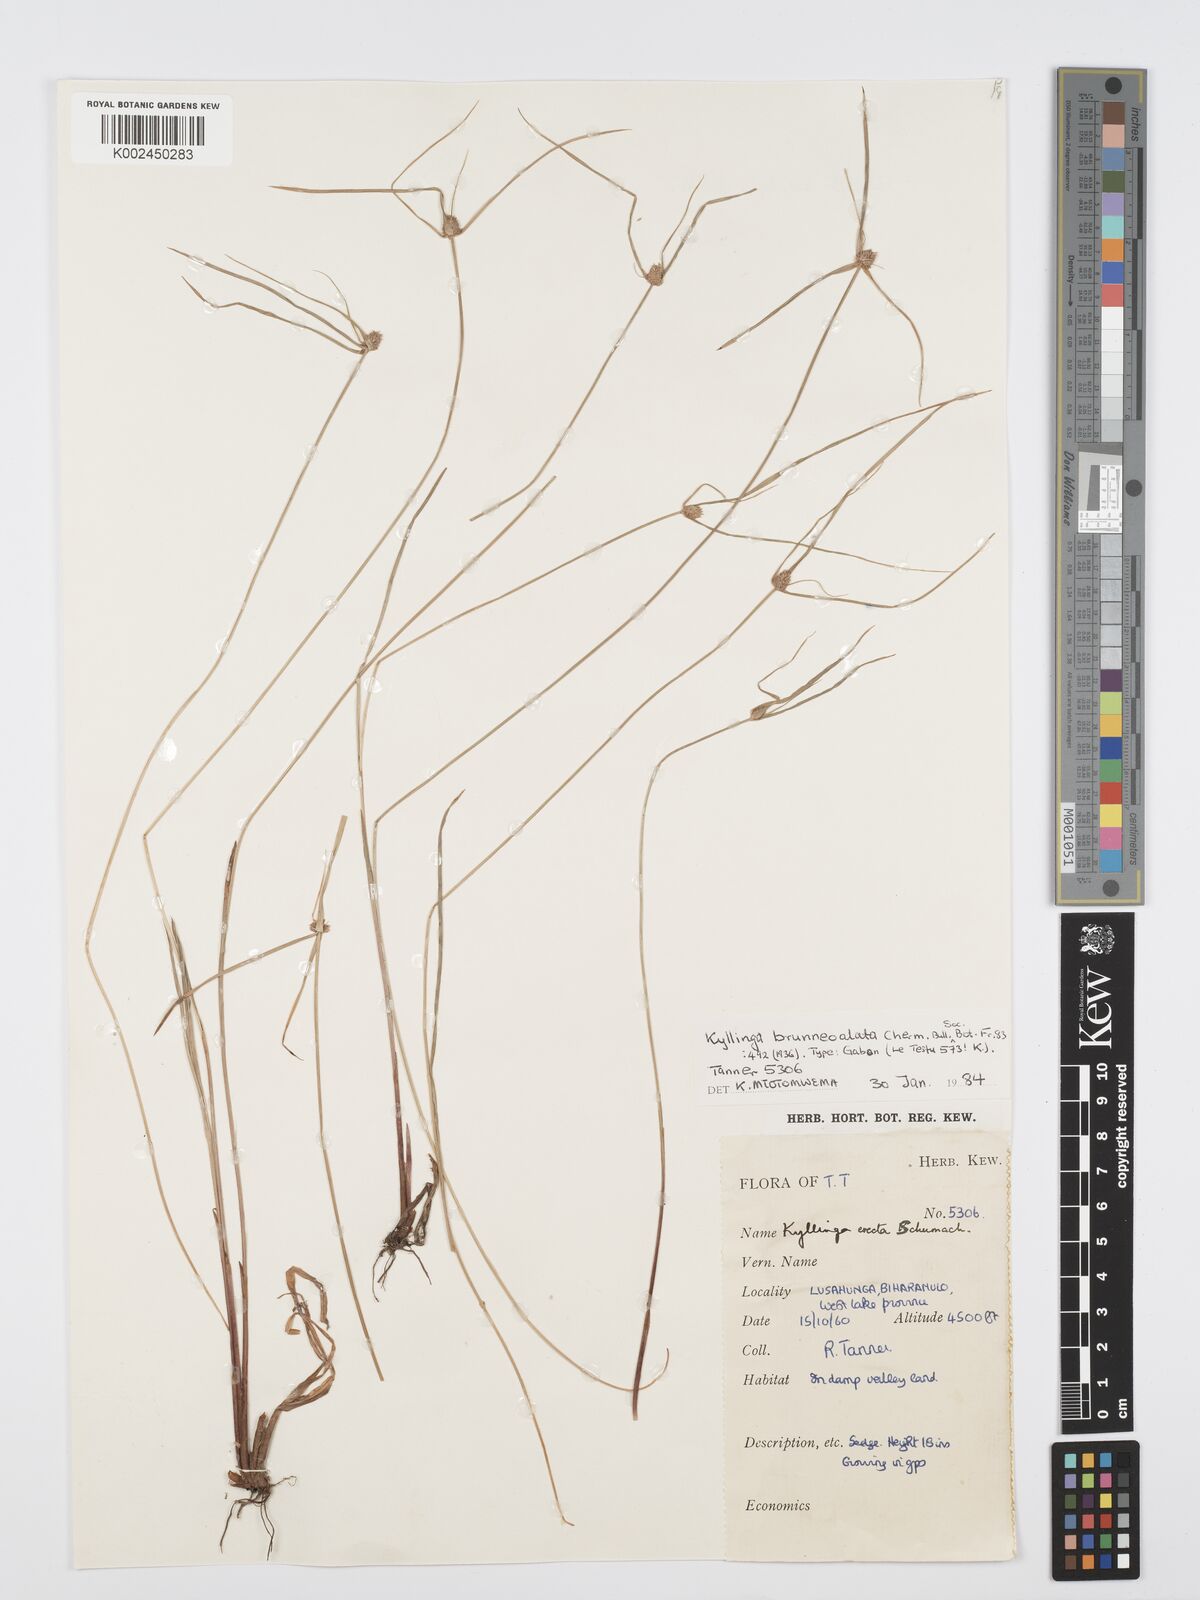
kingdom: Plantae
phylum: Tracheophyta
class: Liliopsida
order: Poales
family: Cyperaceae
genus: Cyperus
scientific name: Cyperus
